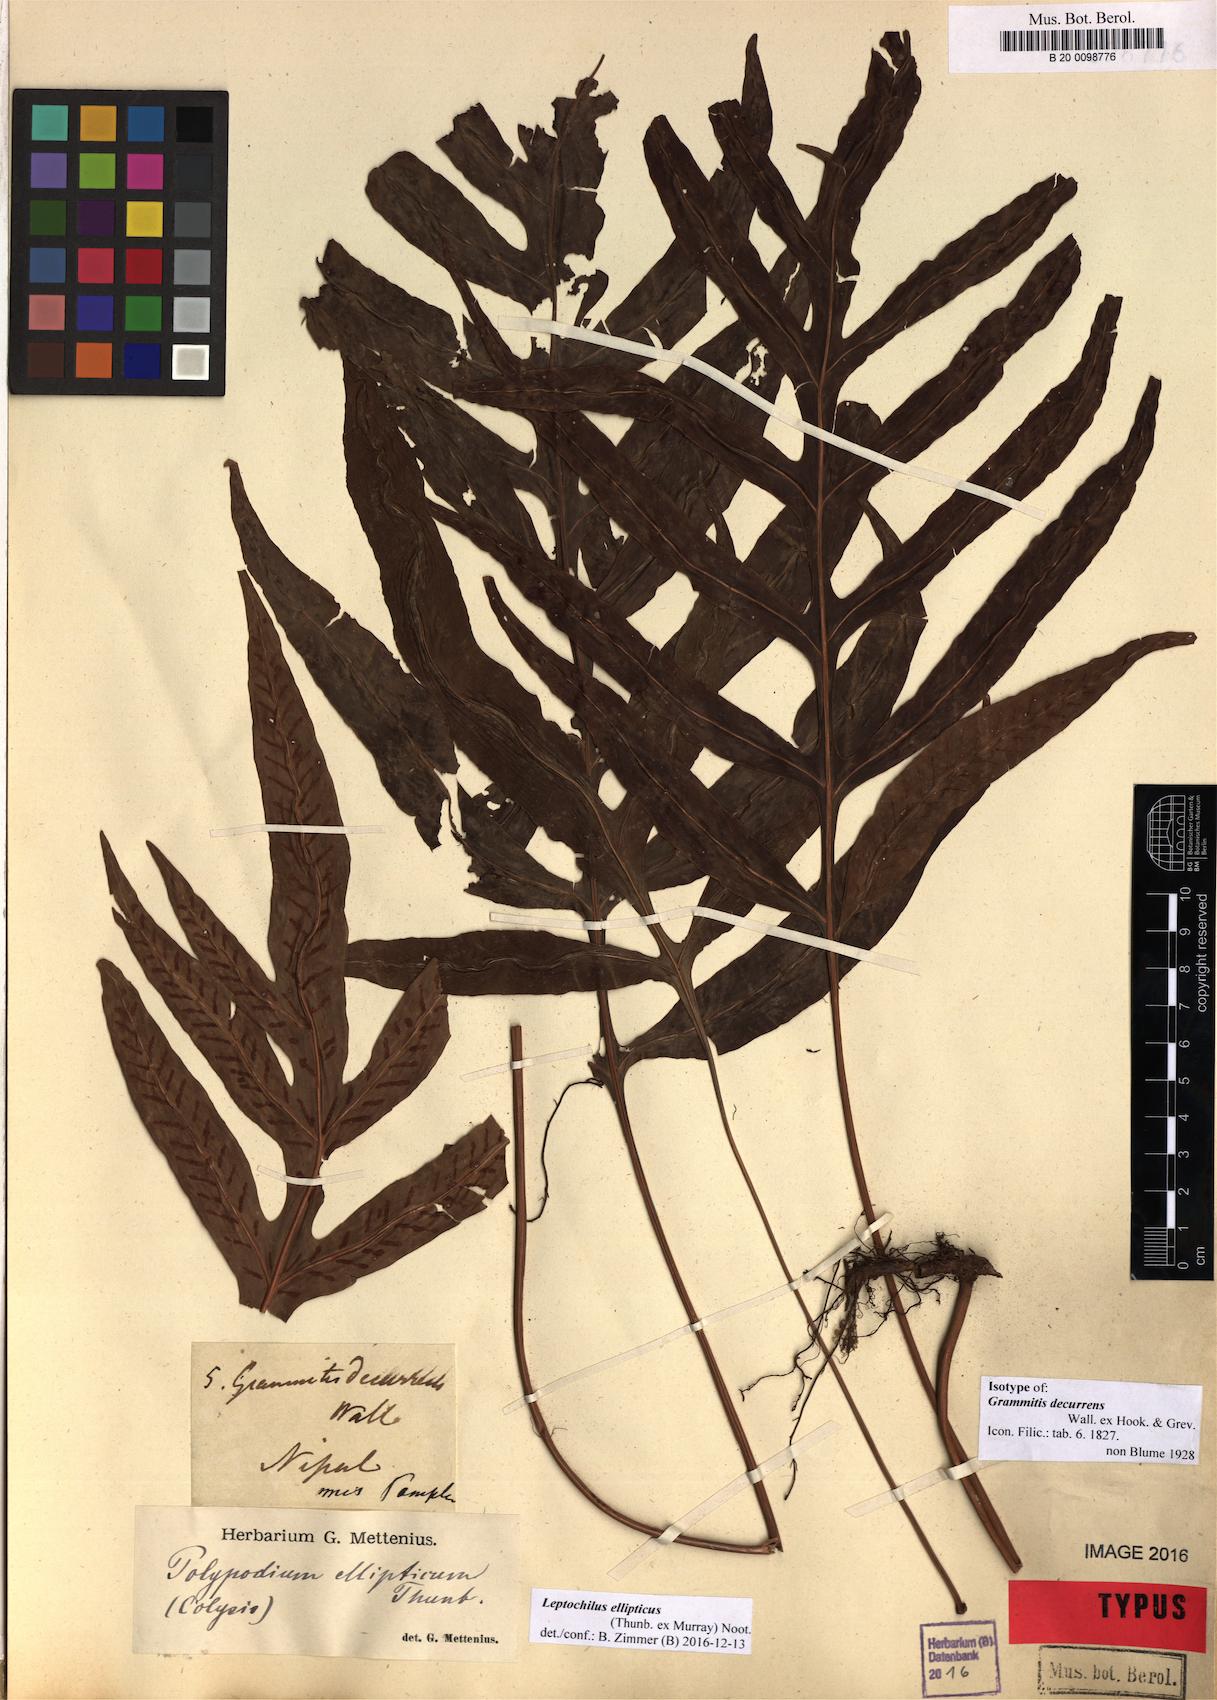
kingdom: Plantae
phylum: Tracheophyta
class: Polypodiopsida
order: Polypodiales
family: Polypodiaceae
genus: Leptochilus
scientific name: Leptochilus ellipticus
